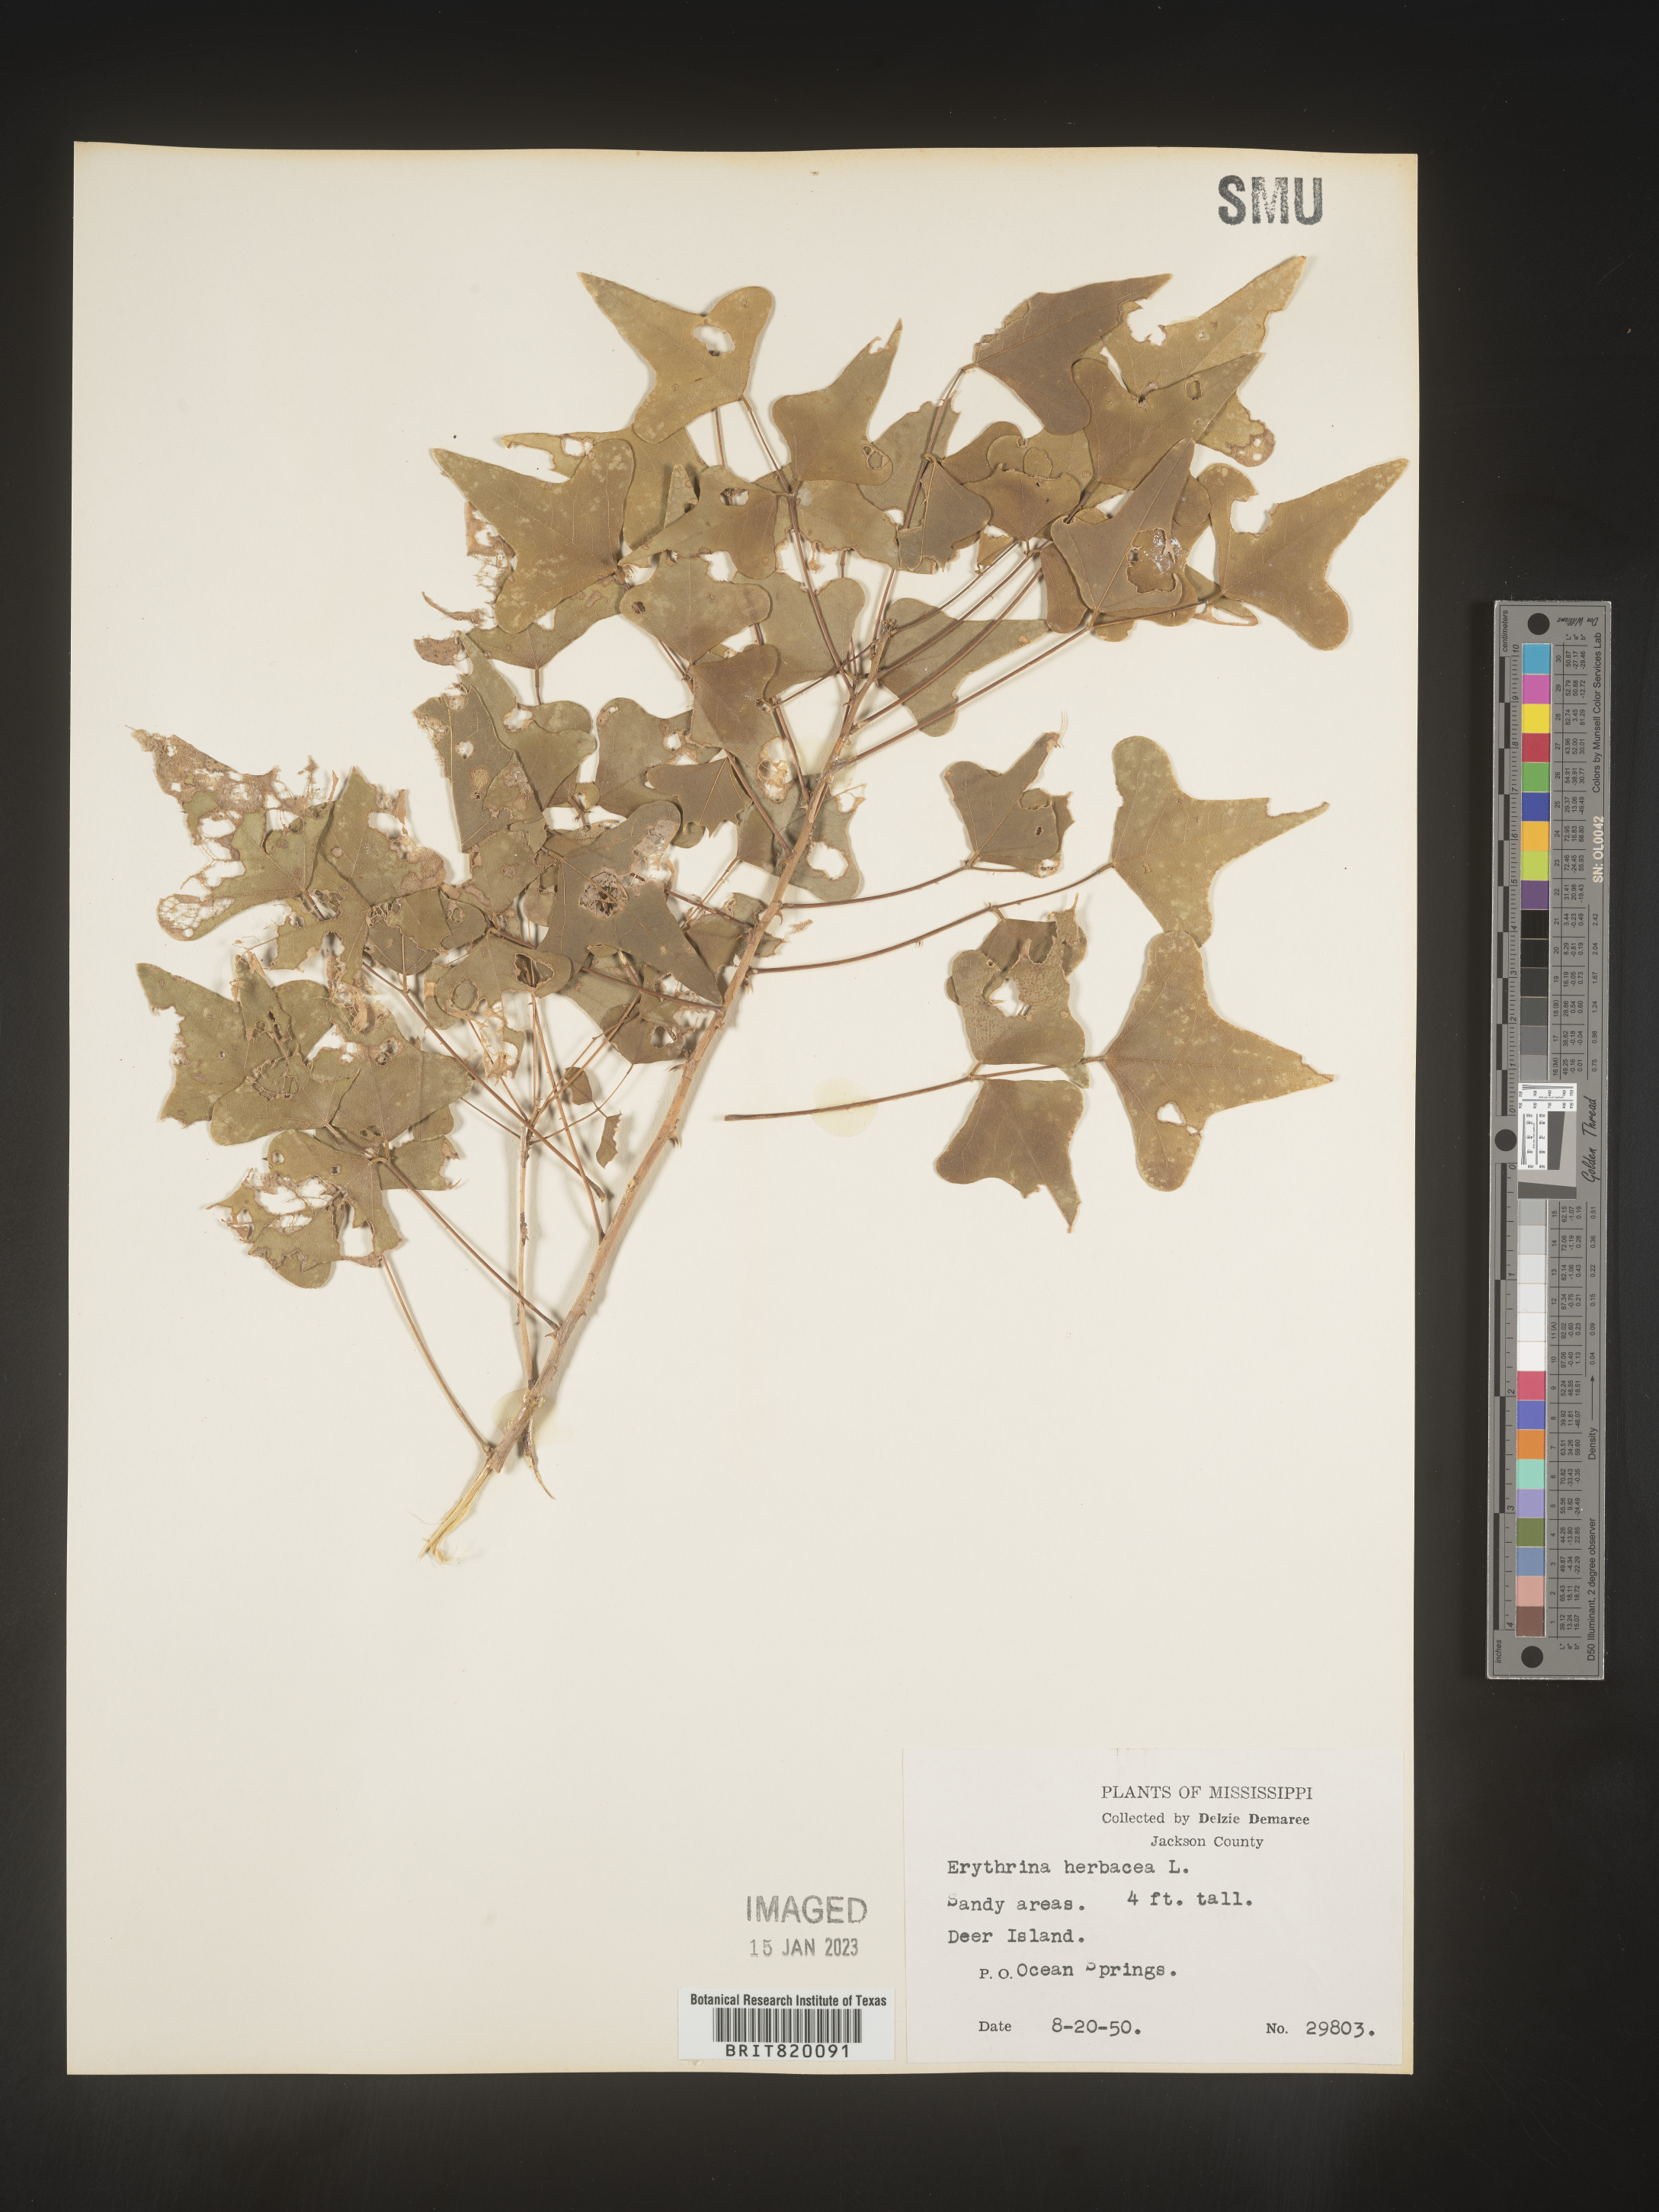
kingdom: Plantae
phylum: Tracheophyta
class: Magnoliopsida
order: Fabales
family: Fabaceae
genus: Erythrina
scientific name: Erythrina herbacea
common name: Coral-bean
